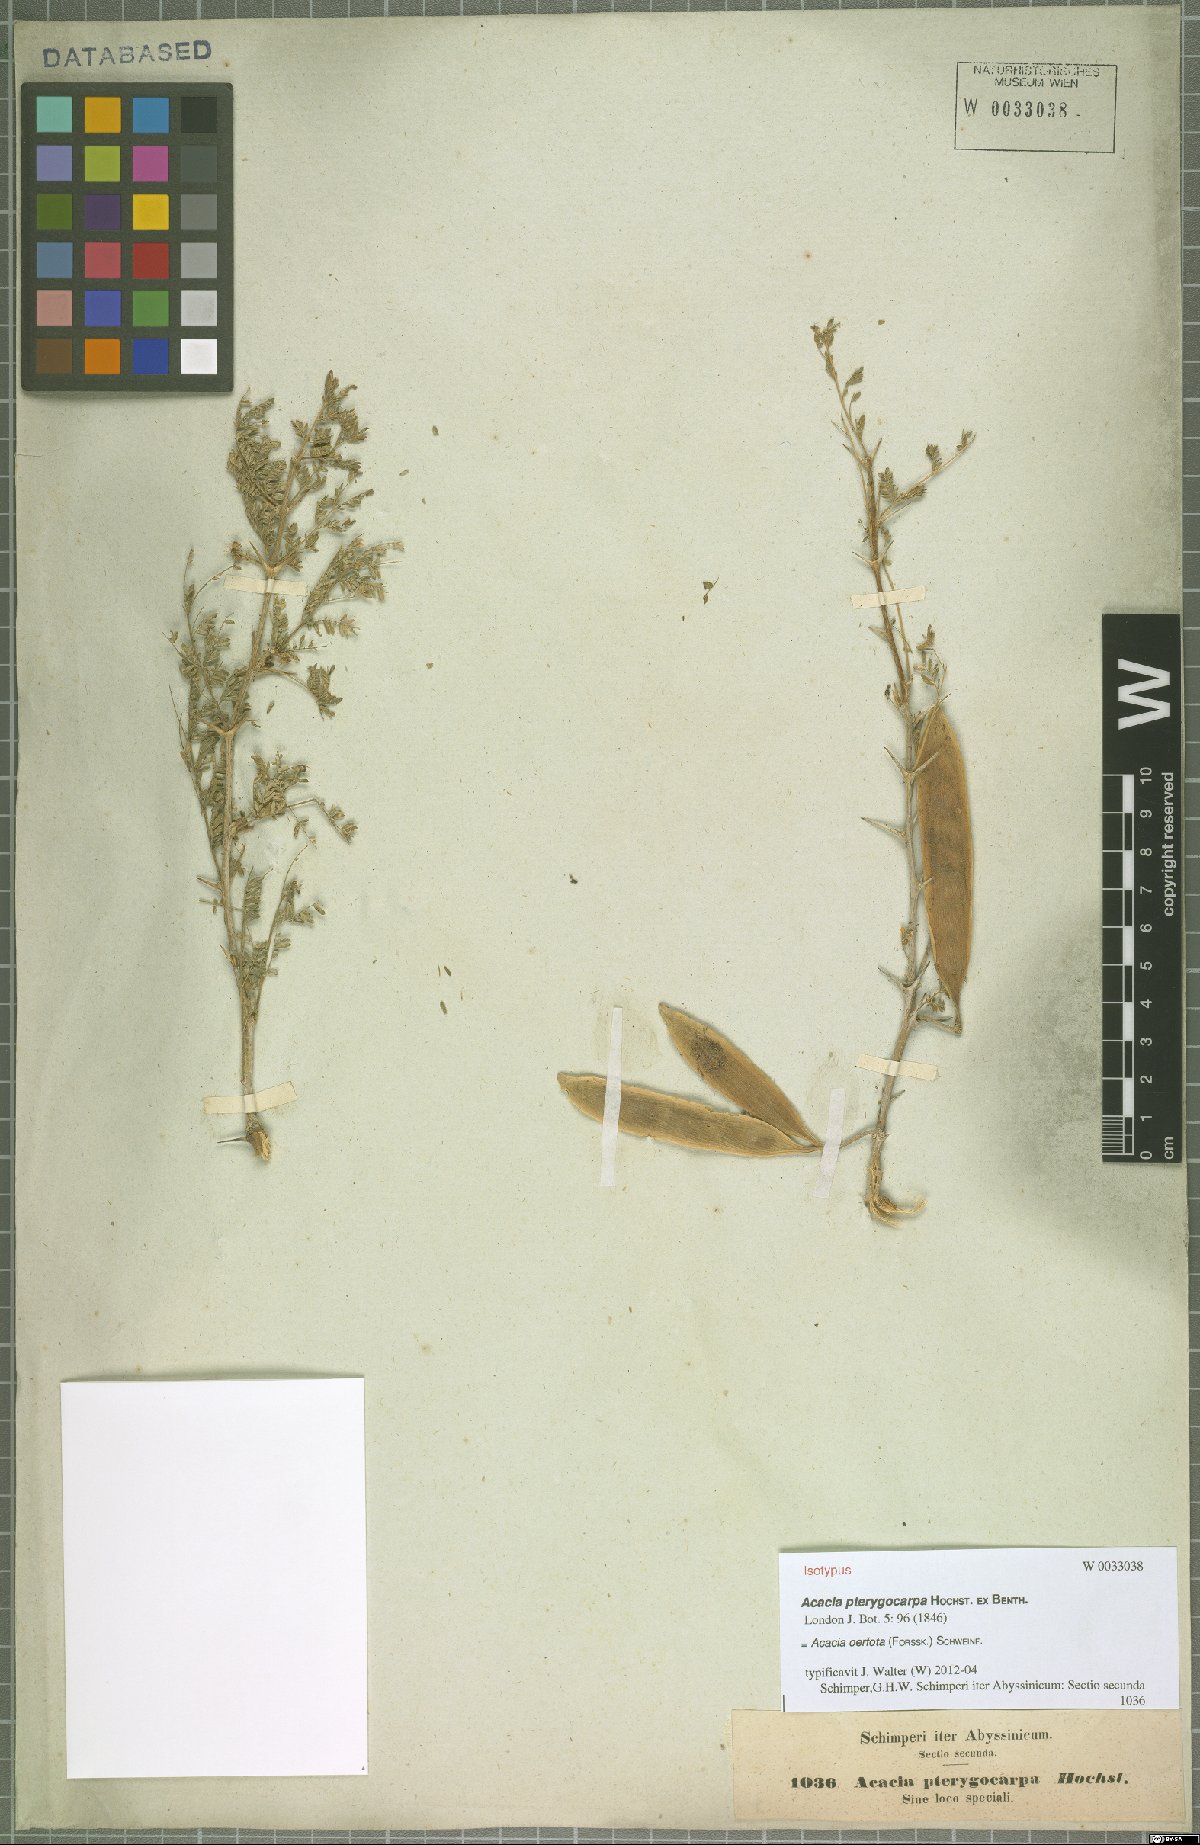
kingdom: Plantae
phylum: Tracheophyta
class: Magnoliopsida
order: Fabales
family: Fabaceae
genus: Vachellia
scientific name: Vachellia oerfota
